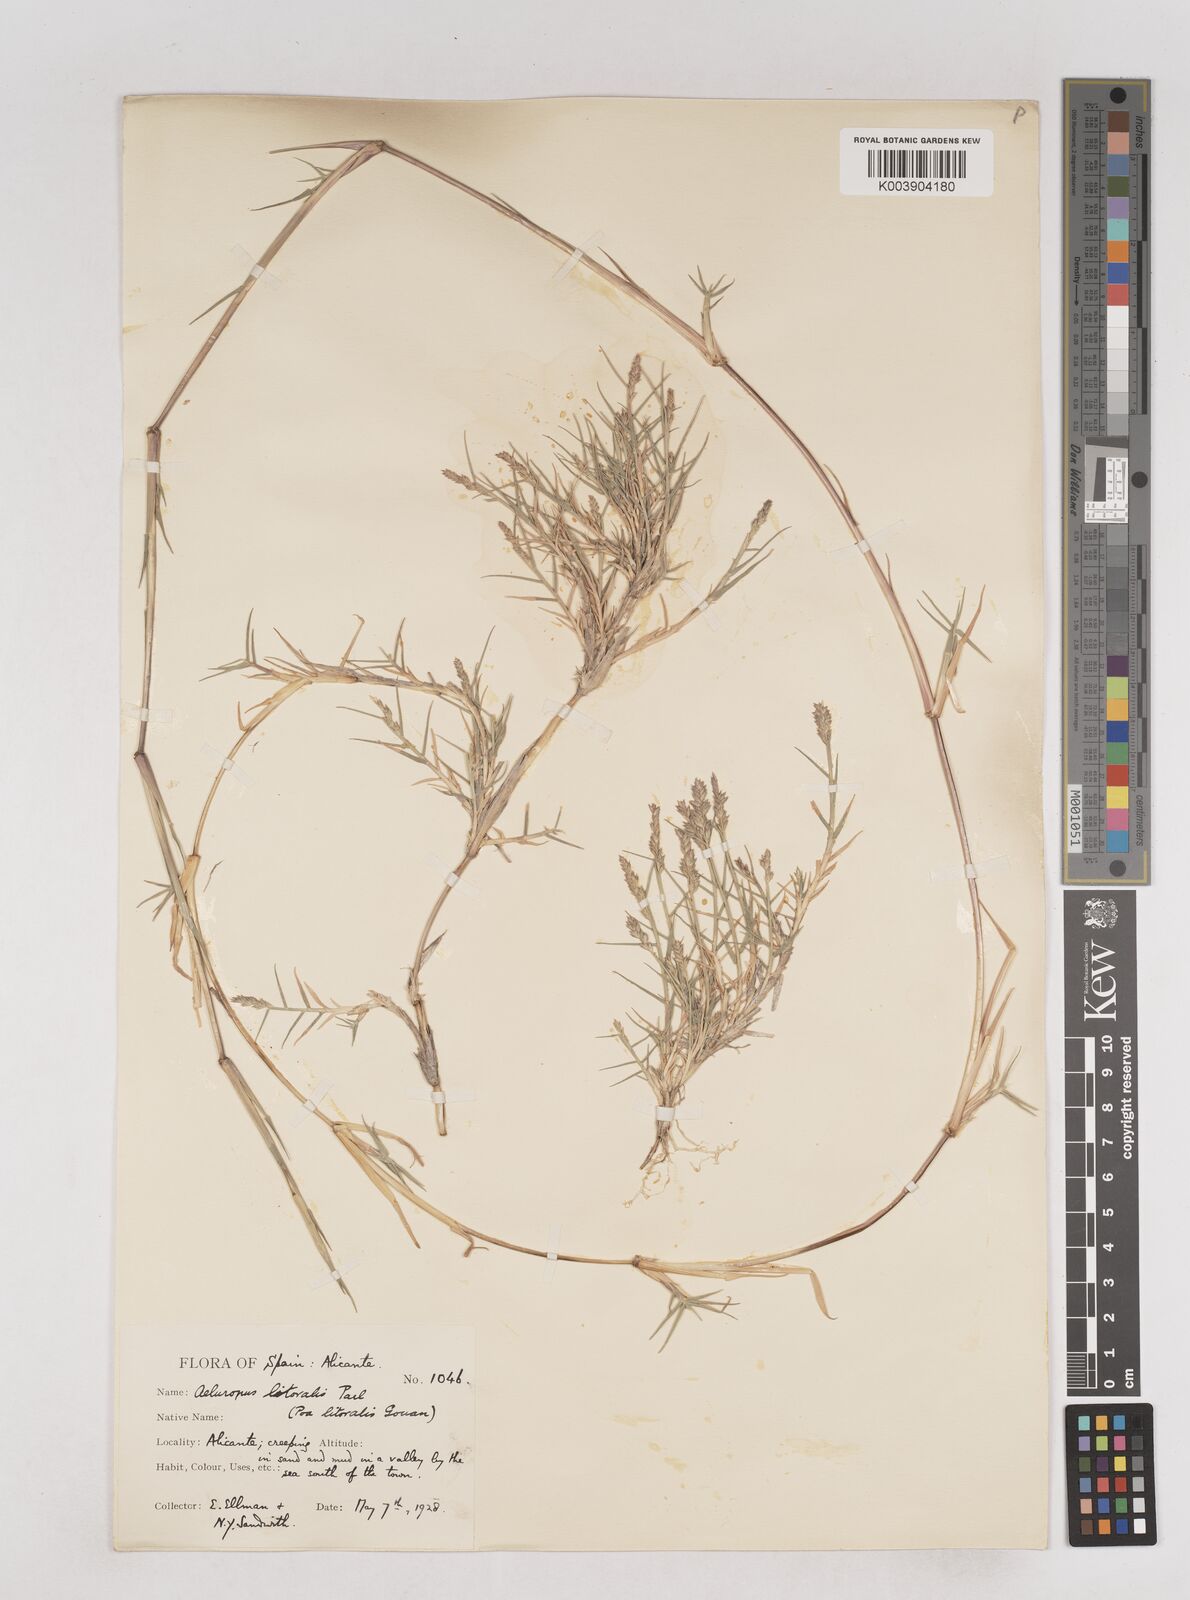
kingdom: Plantae
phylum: Tracheophyta
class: Liliopsida
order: Poales
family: Poaceae
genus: Aeluropus
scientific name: Aeluropus littoralis
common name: Indian walnut
